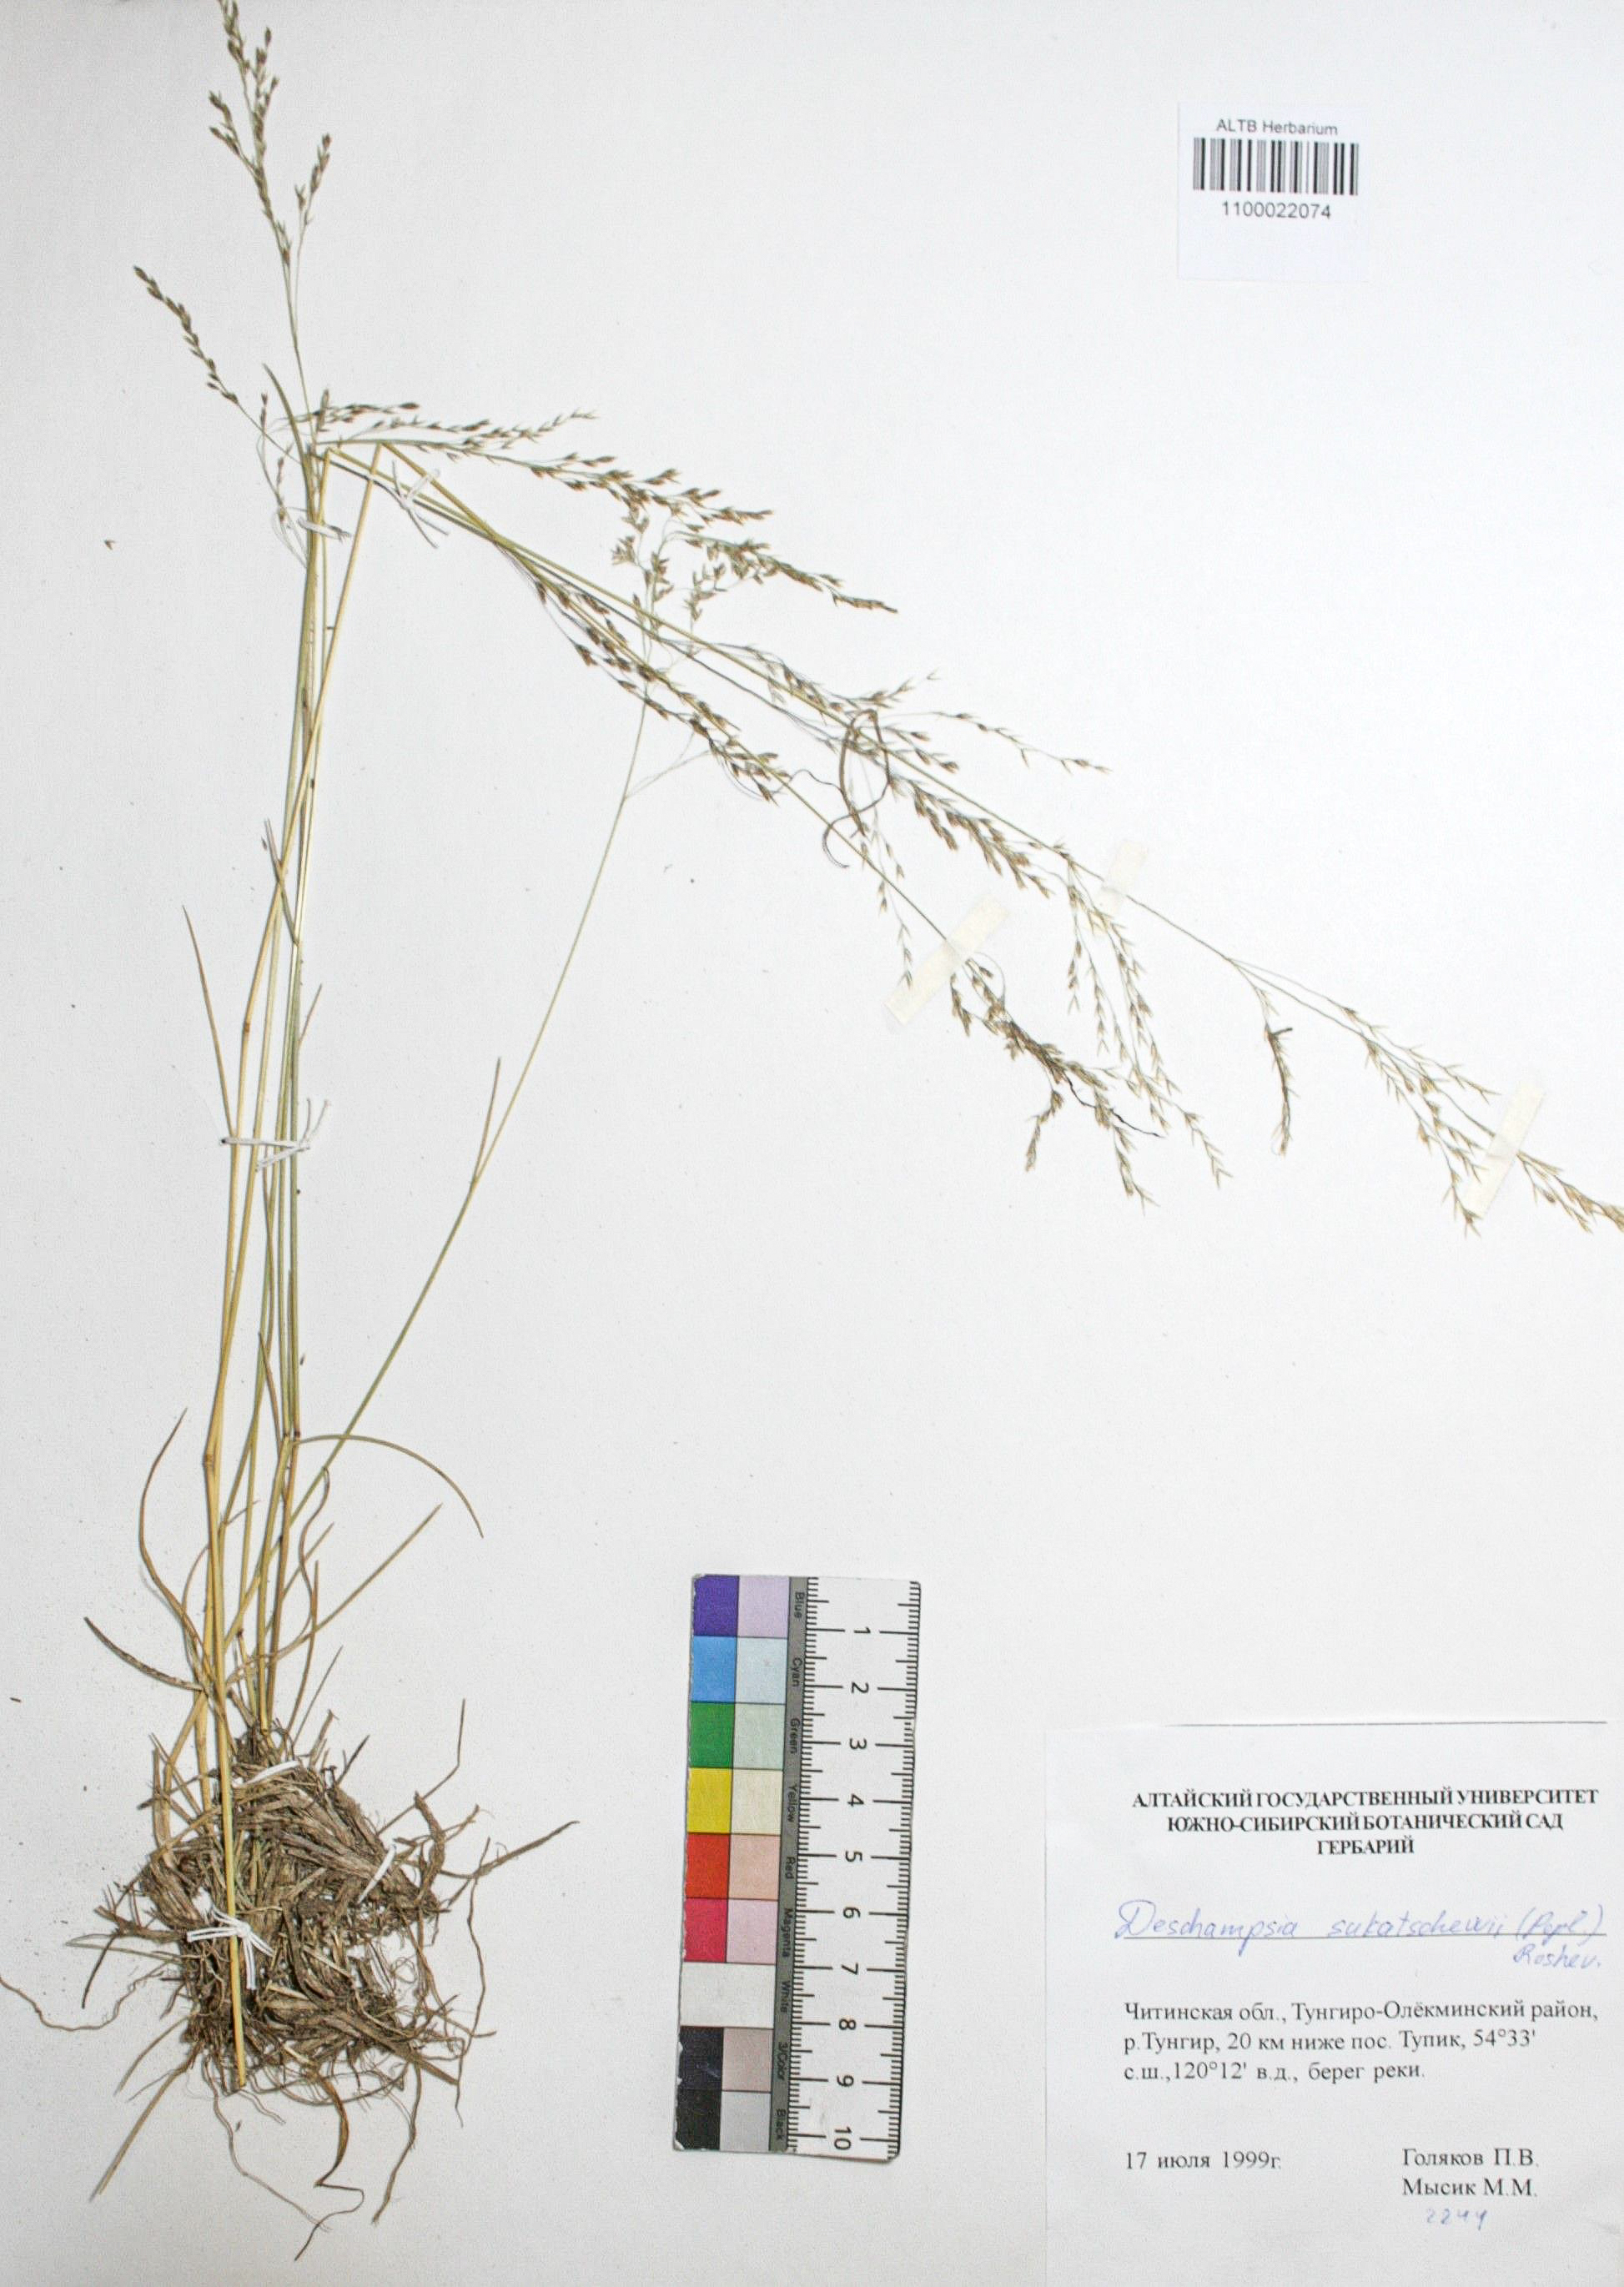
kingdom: Plantae
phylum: Tracheophyta
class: Liliopsida
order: Poales
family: Poaceae
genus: Deschampsia
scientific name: Deschampsia cespitosa
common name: Tufted hair-grass
